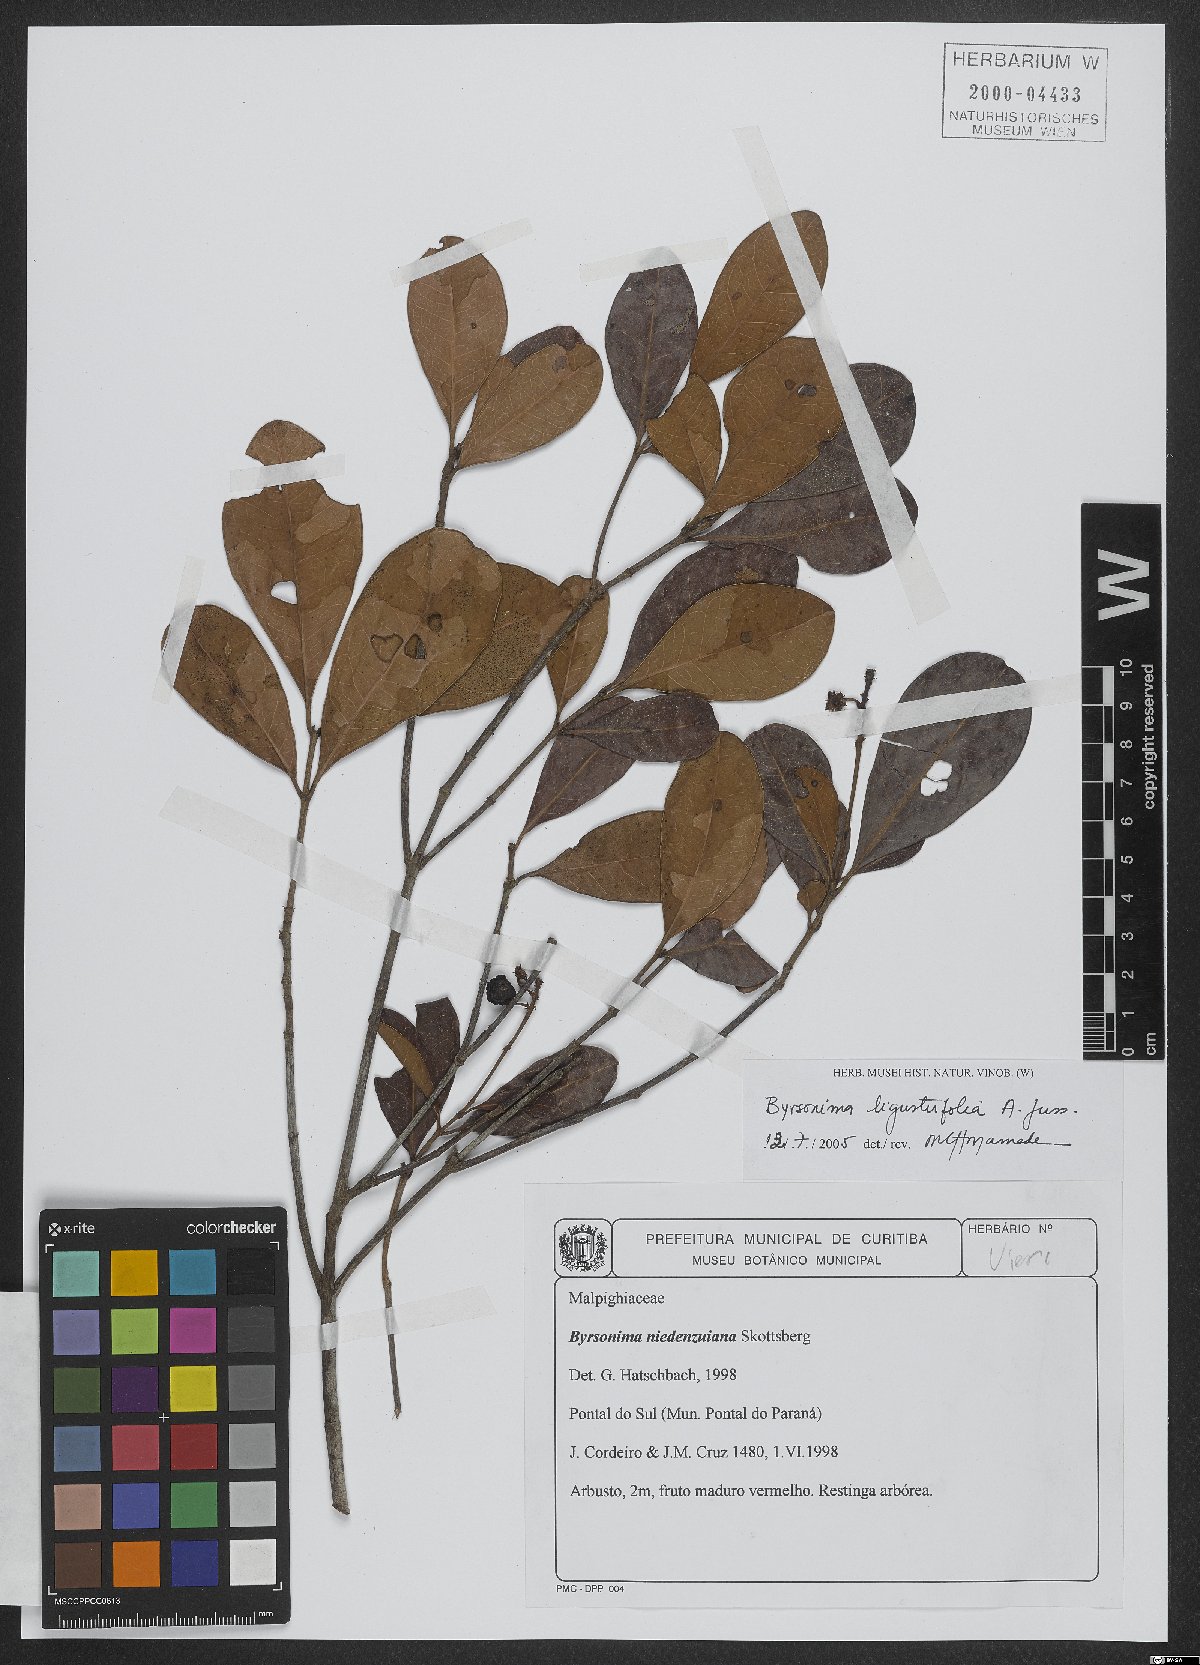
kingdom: Plantae
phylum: Tracheophyta
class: Magnoliopsida
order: Malpighiales
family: Malpighiaceae
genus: Byrsonima
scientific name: Byrsonima ligustrifolia
